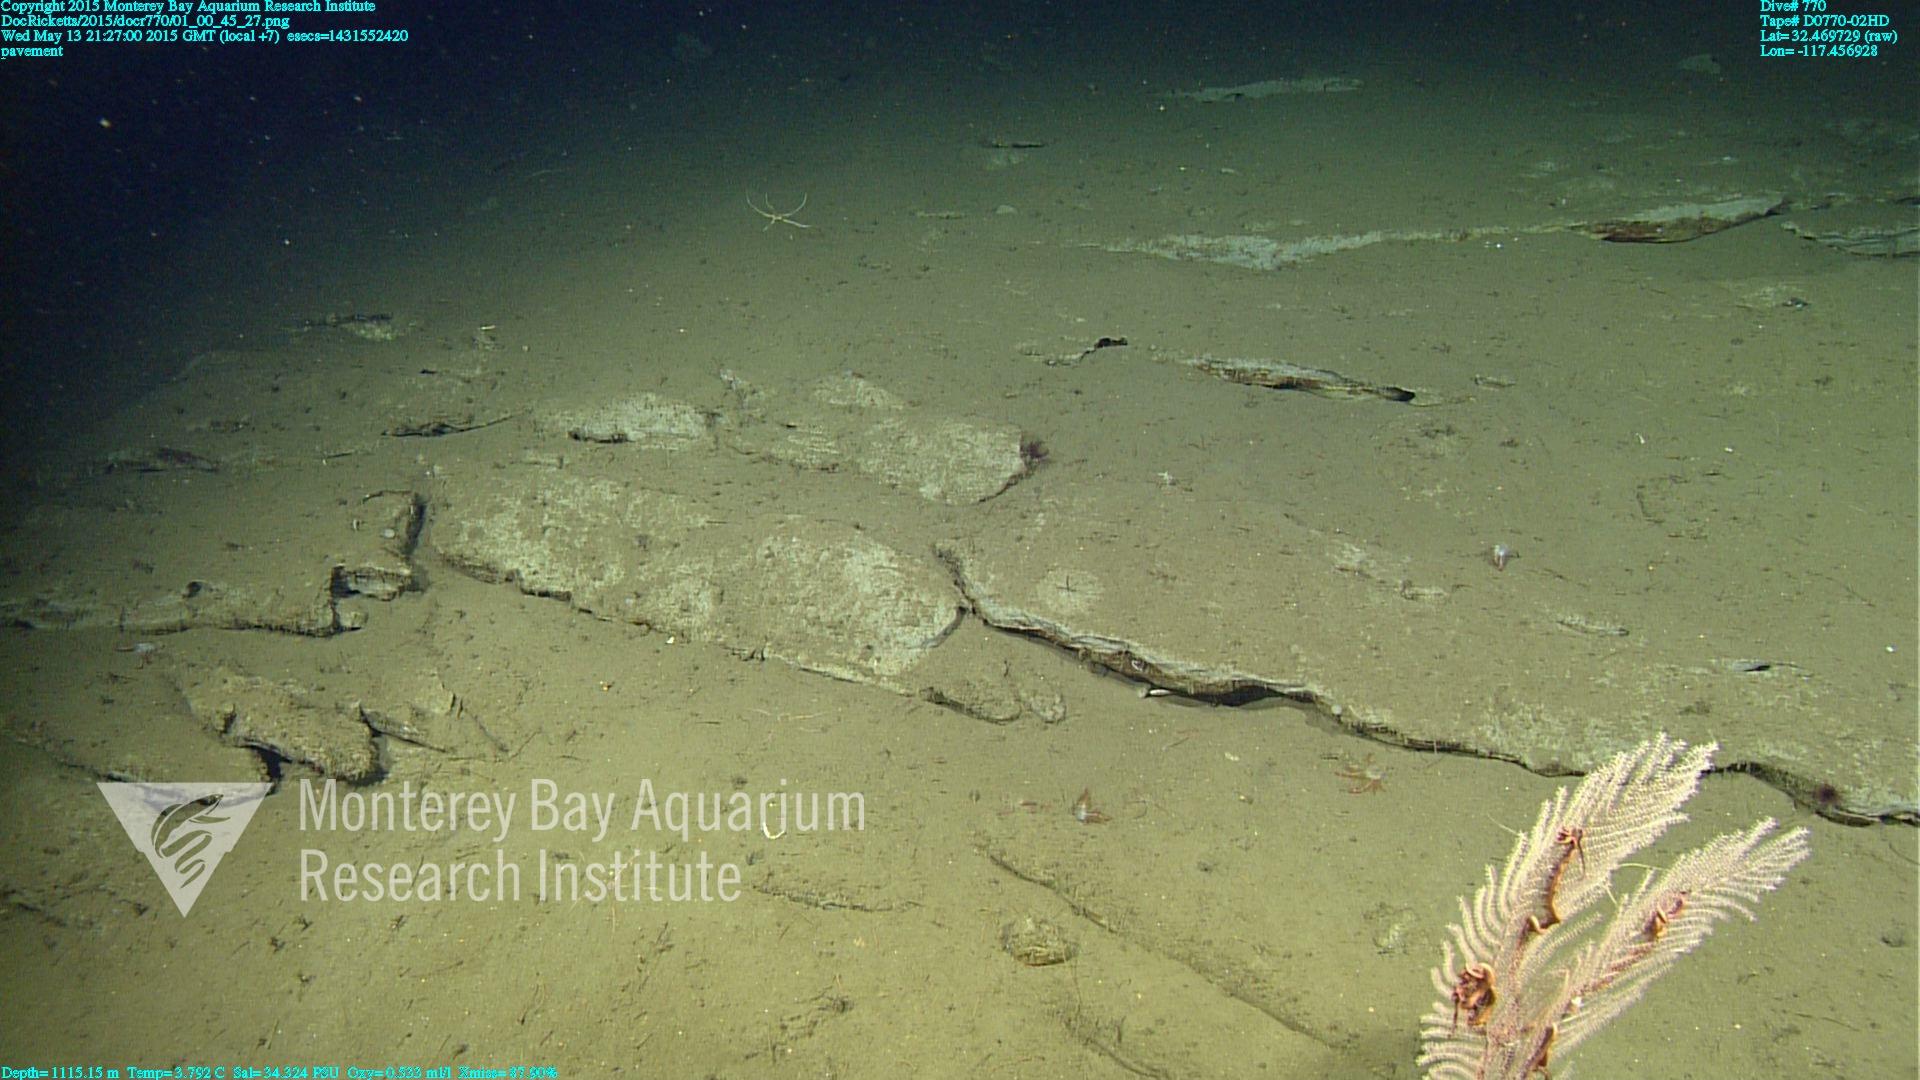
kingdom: Animalia
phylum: Cnidaria
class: Anthozoa
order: Scleralcyonacea
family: Primnoidae
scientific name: Primnoidae
